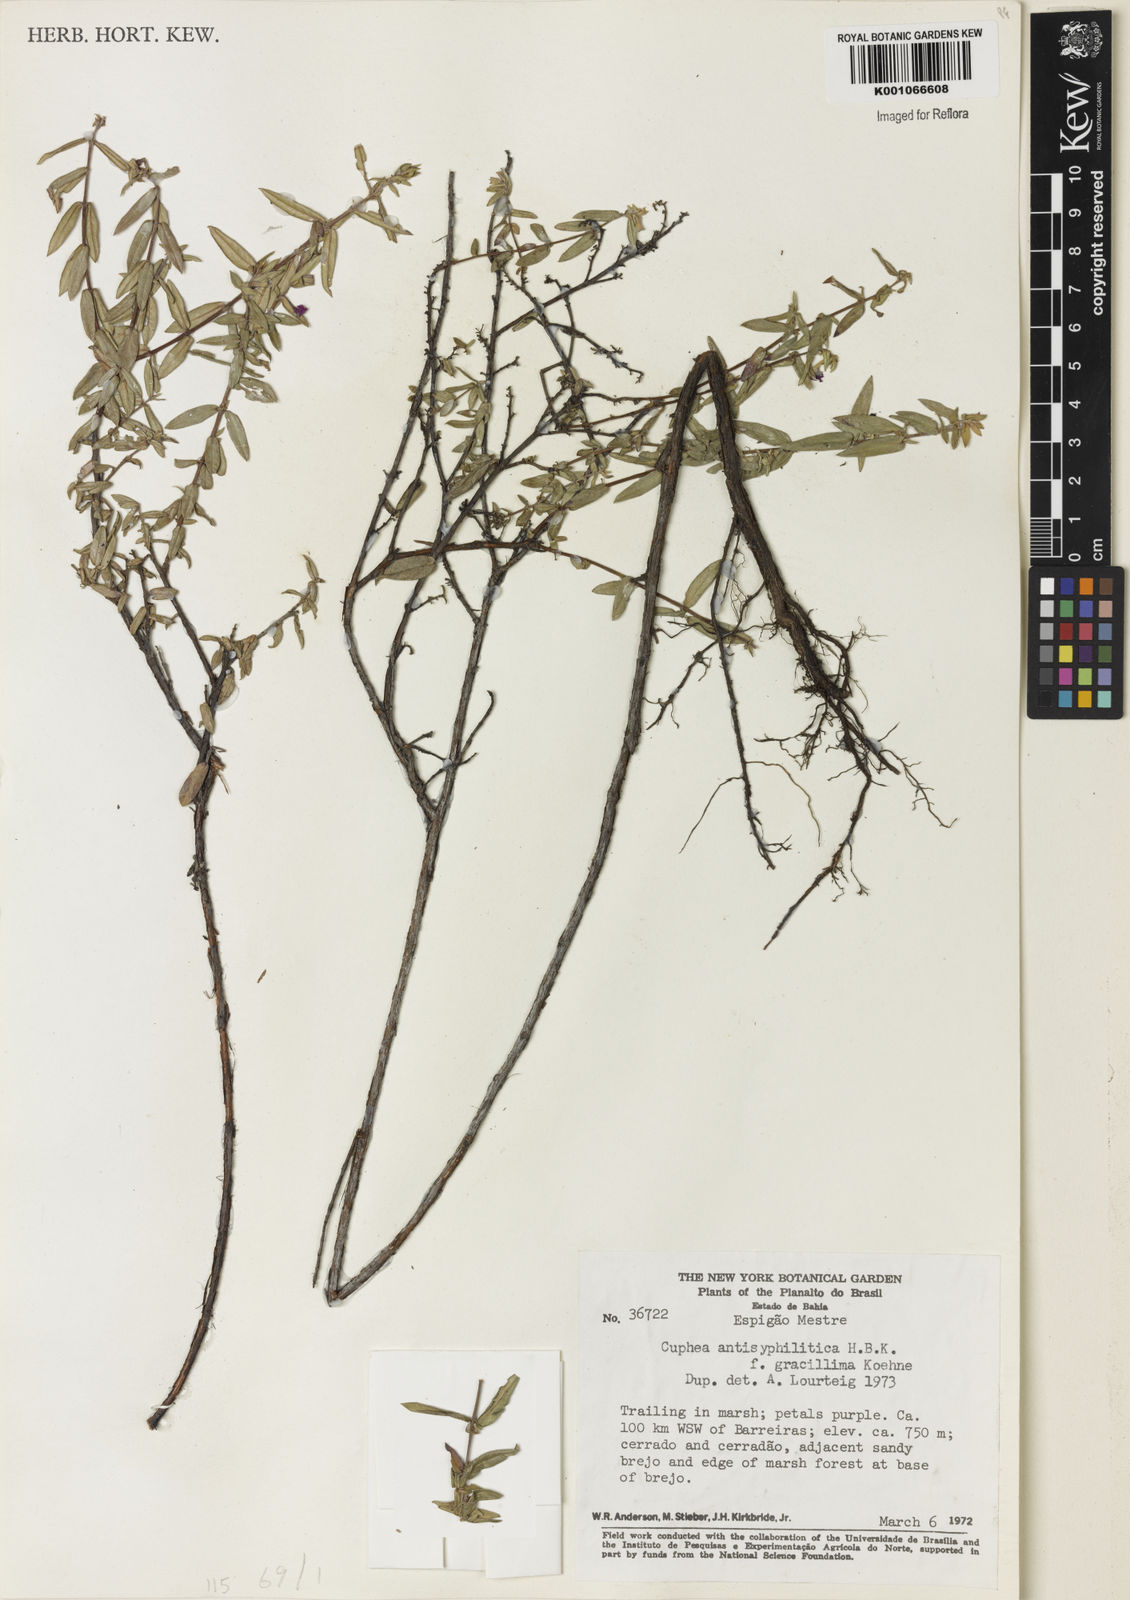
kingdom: Plantae
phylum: Tracheophyta
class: Magnoliopsida
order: Myrtales
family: Lythraceae
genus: Cuphea
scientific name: Cuphea antisyphilitica
